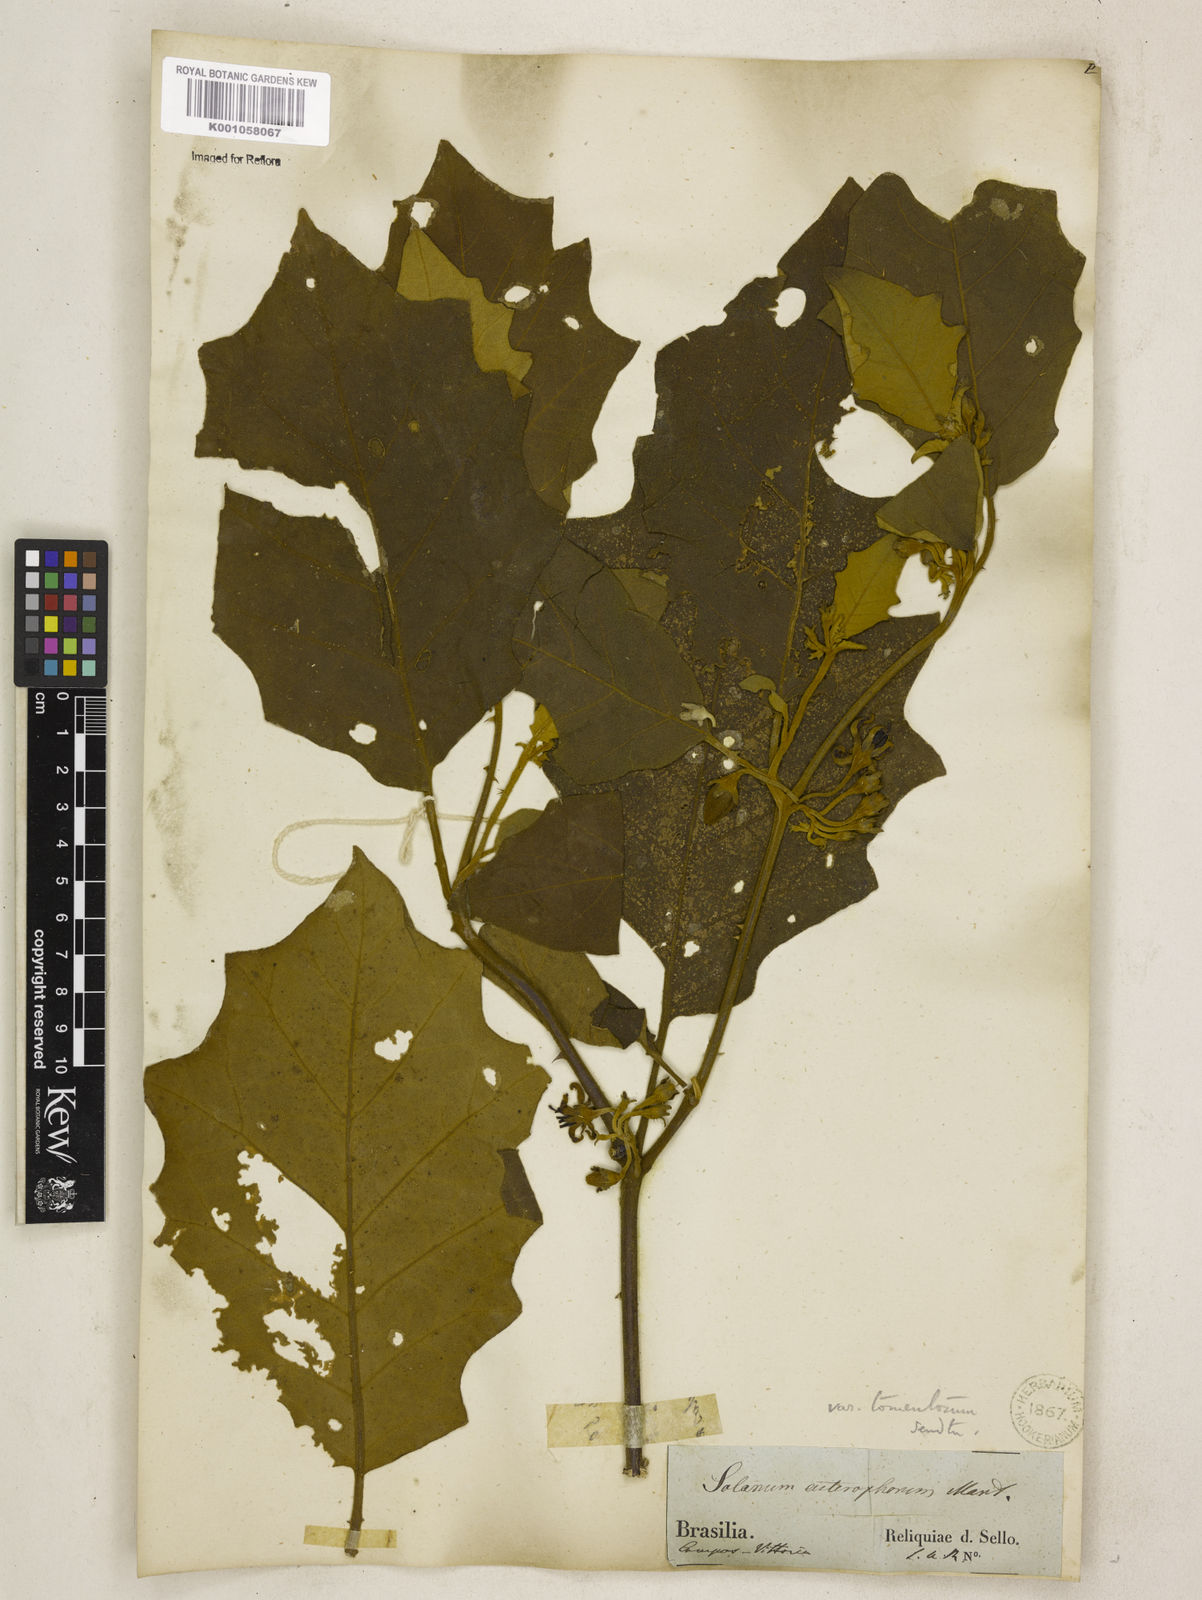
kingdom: Plantae
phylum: Tracheophyta
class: Magnoliopsida
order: Solanales
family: Solanaceae
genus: Solanum
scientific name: Solanum asterophorum
